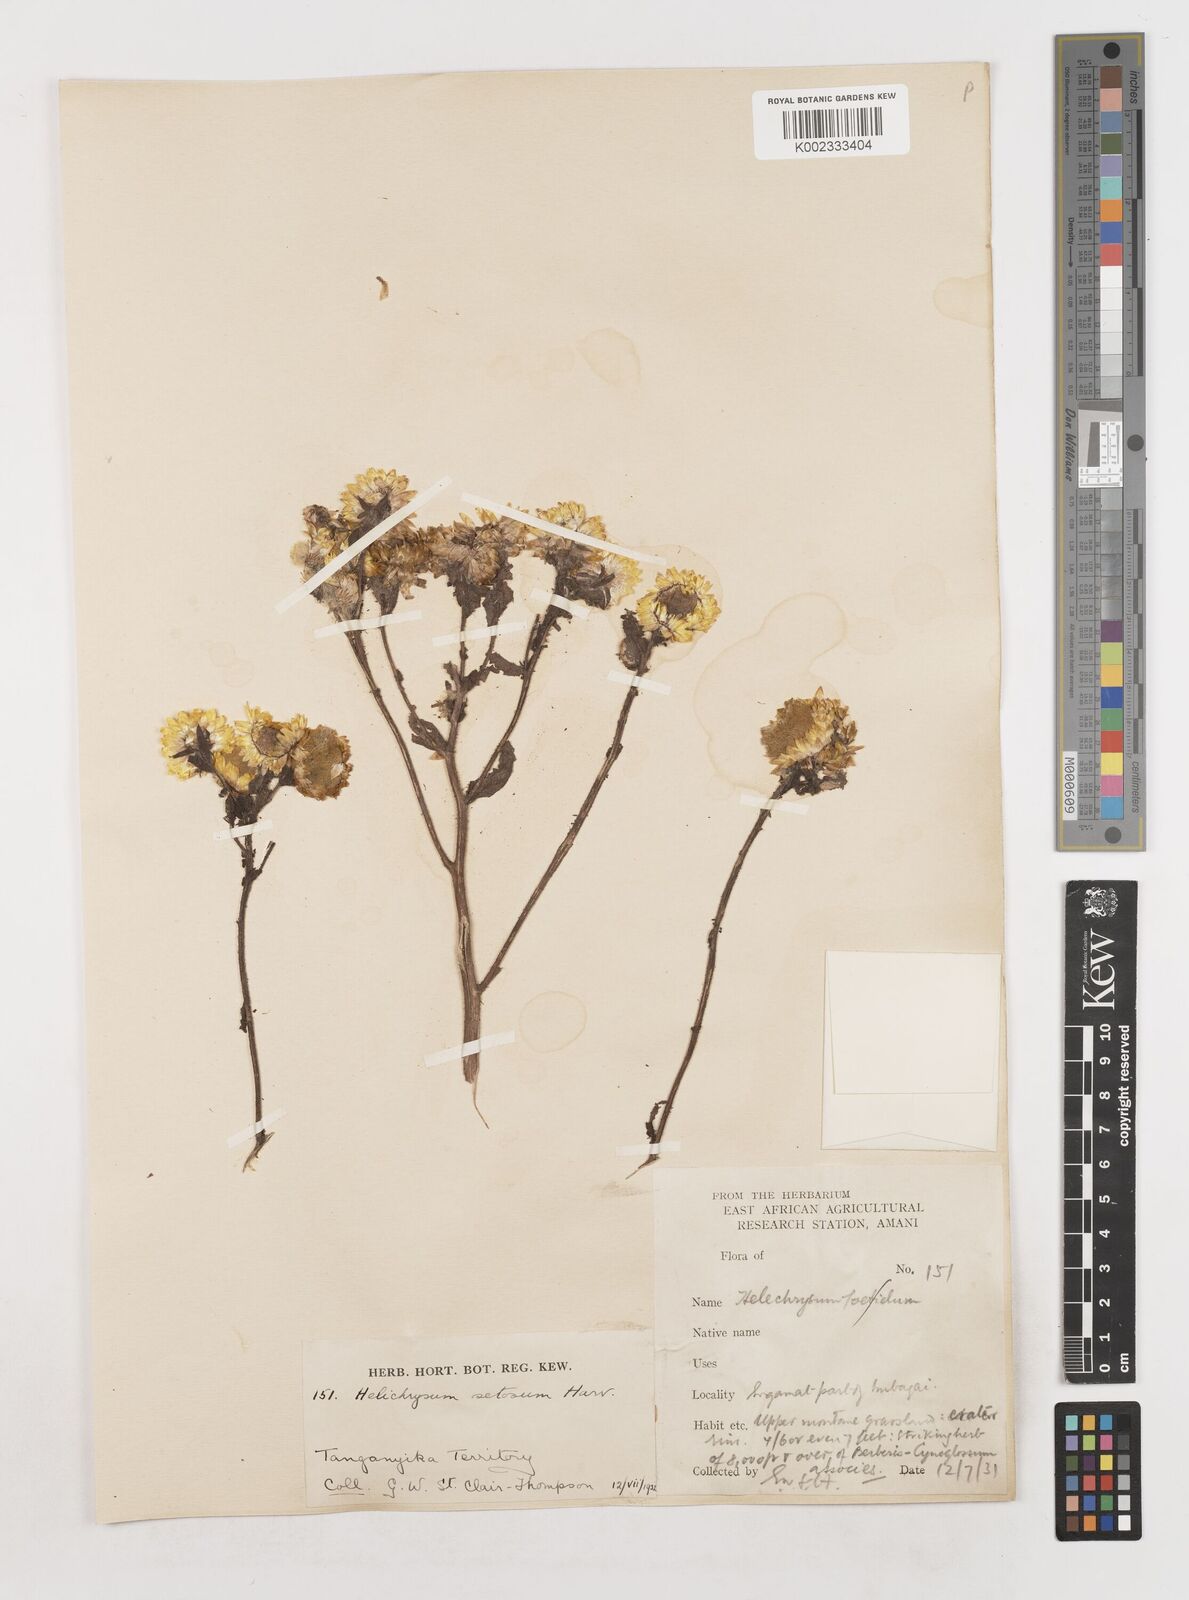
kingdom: Plantae
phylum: Tracheophyta
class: Magnoliopsida
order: Asterales
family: Asteraceae
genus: Helichrysum
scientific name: Helichrysum setosum
